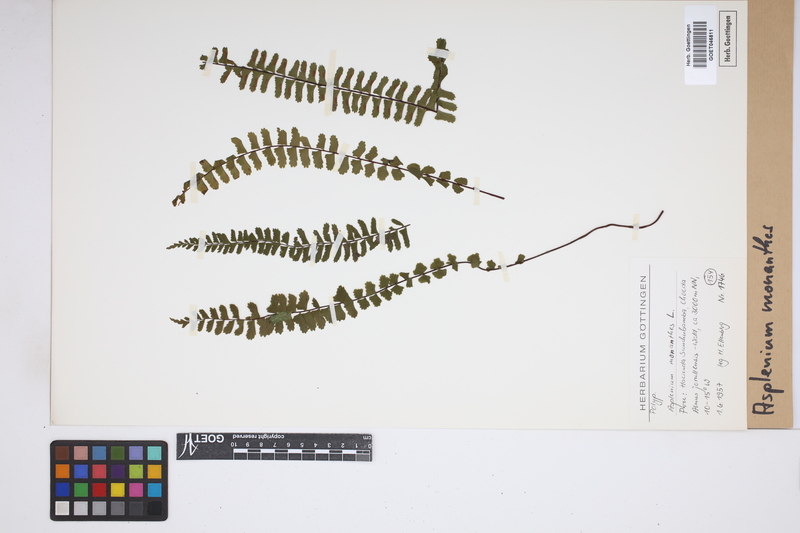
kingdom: Plantae
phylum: Tracheophyta
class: Polypodiopsida
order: Polypodiales
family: Aspleniaceae
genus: Asplenium
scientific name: Asplenium monanthes
